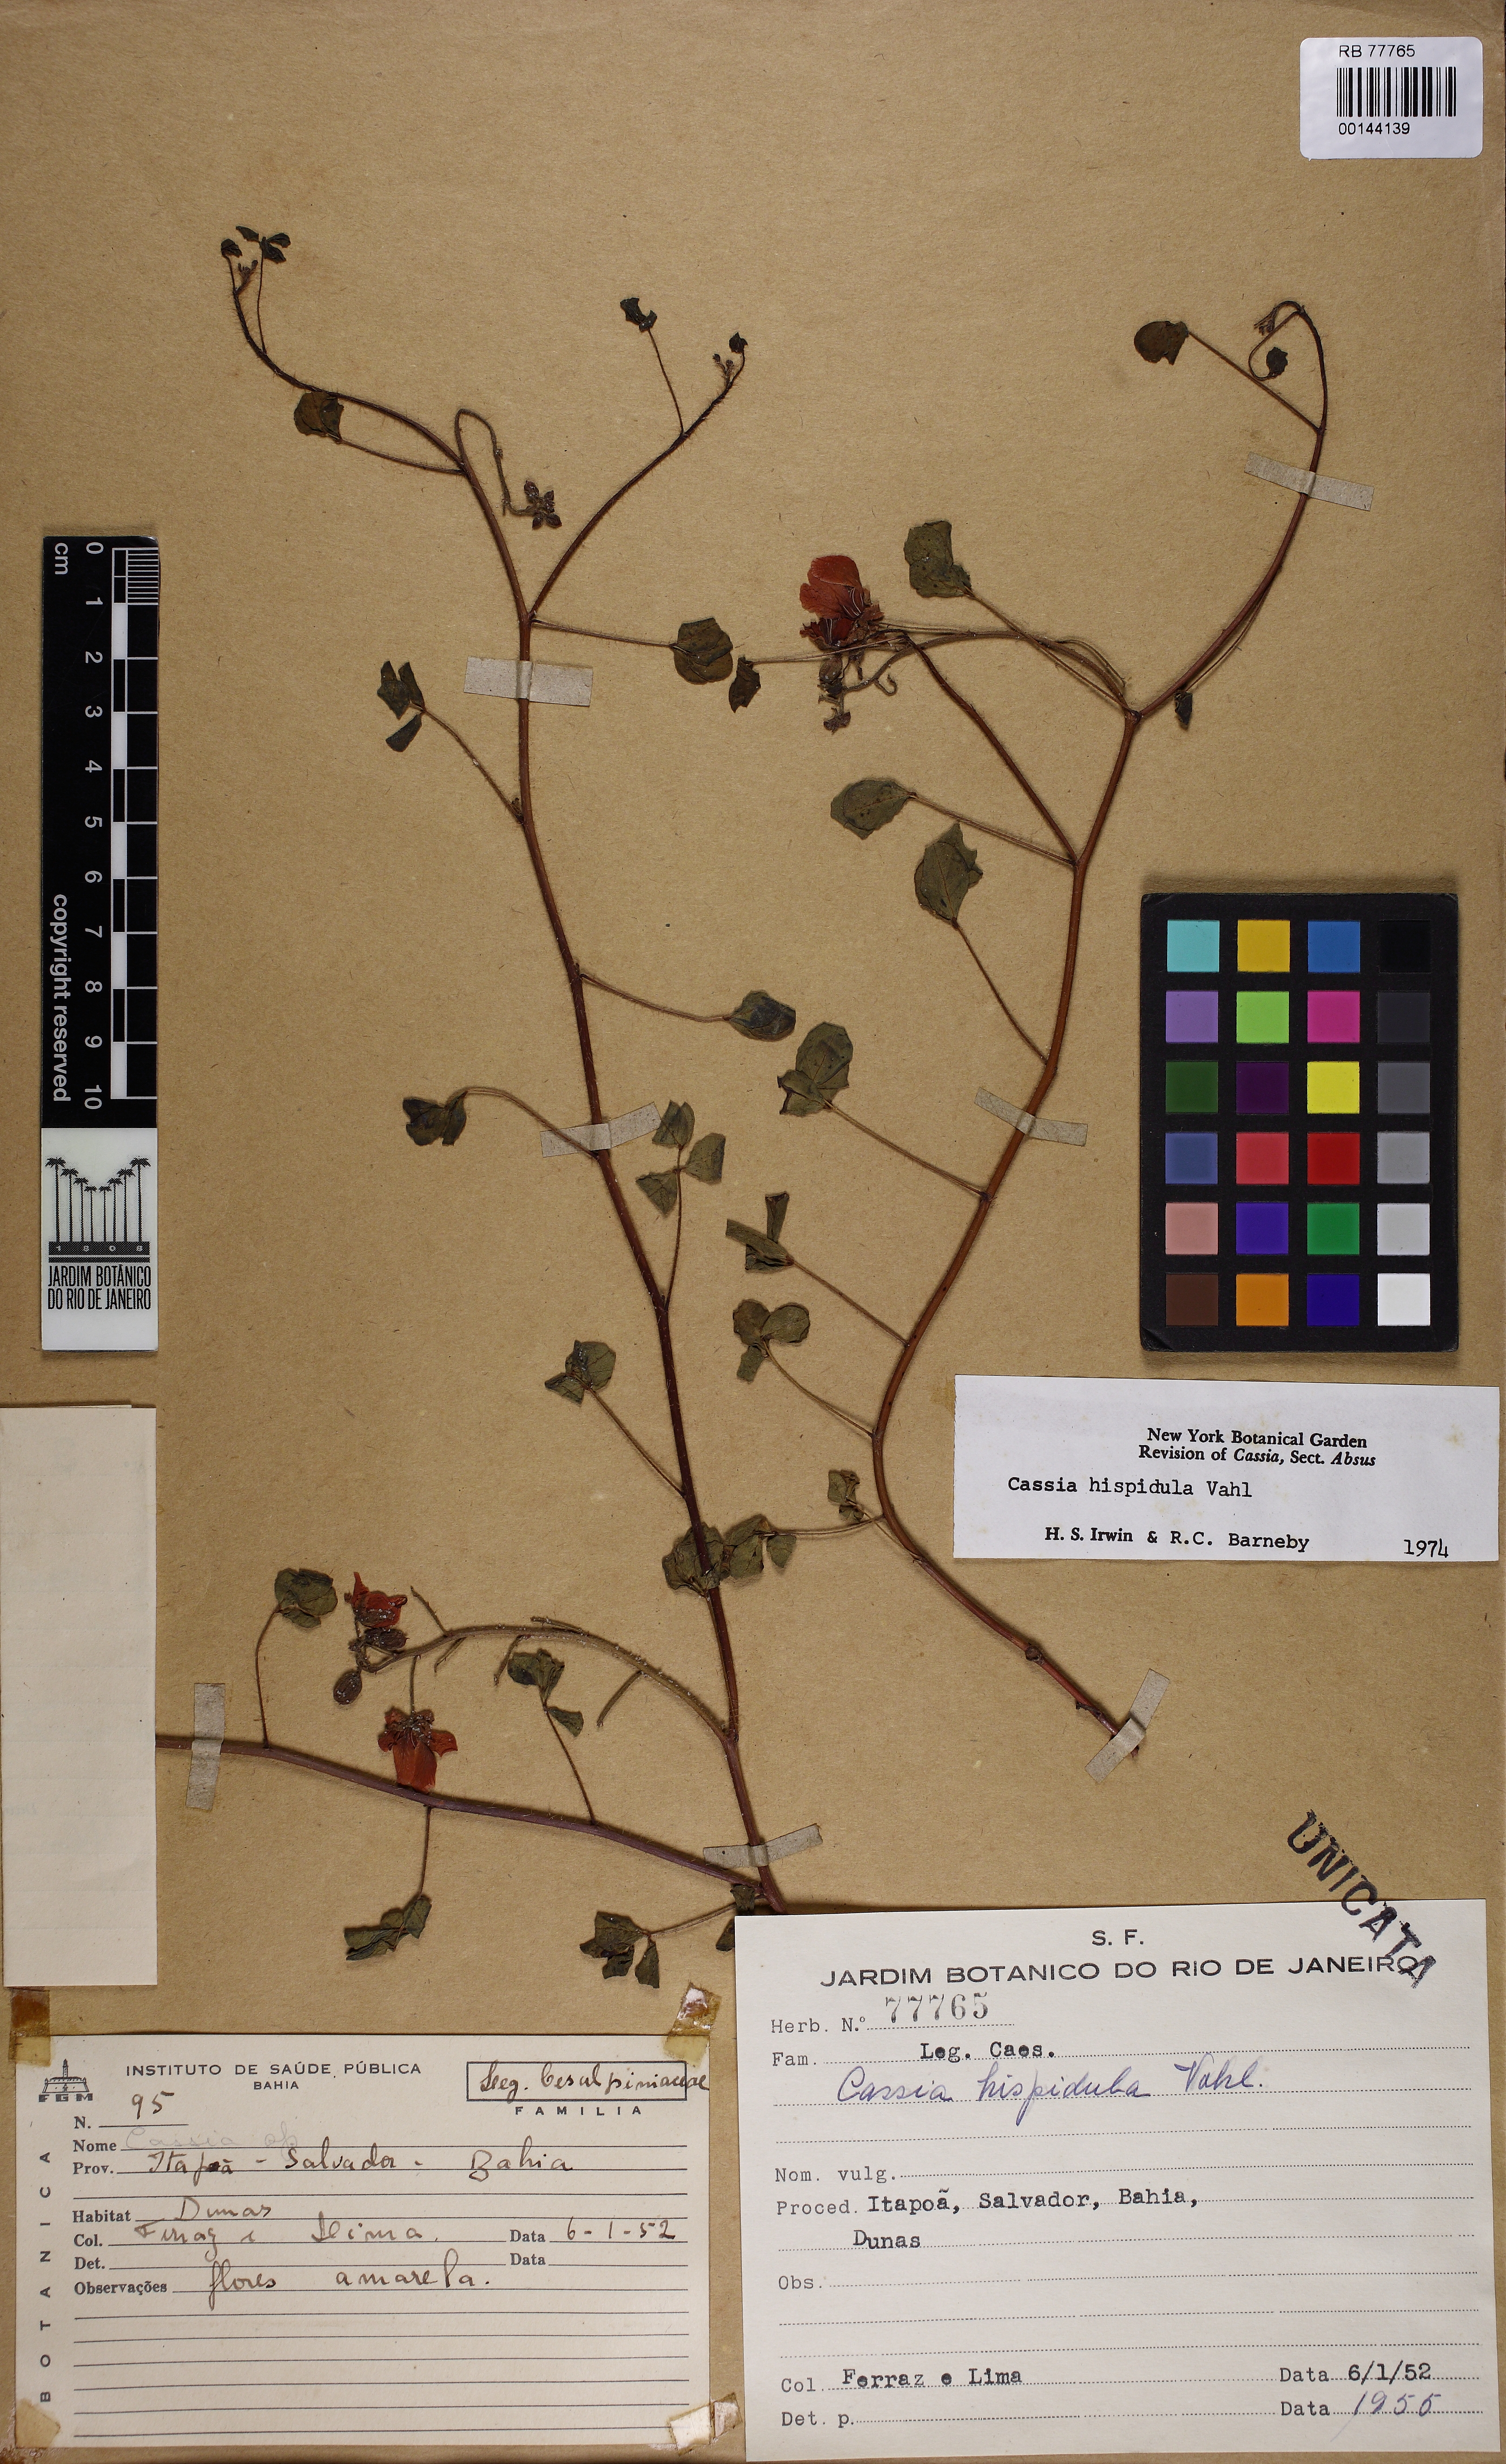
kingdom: Plantae
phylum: Tracheophyta
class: Magnoliopsida
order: Fabales
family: Fabaceae
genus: Chamaecrista
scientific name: Chamaecrista hispidula
